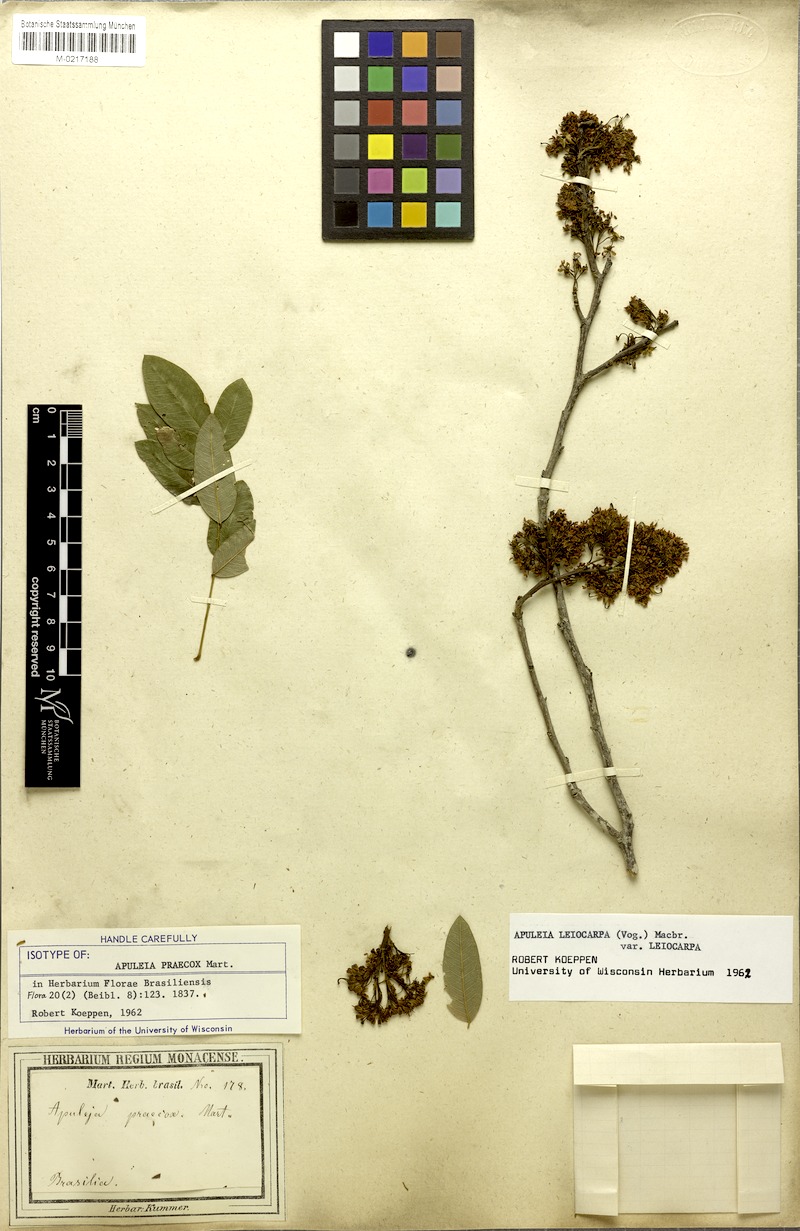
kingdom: Plantae
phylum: Tracheophyta
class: Magnoliopsida
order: Fabales
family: Fabaceae
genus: Apuleia
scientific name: Apuleia leiocarpa
